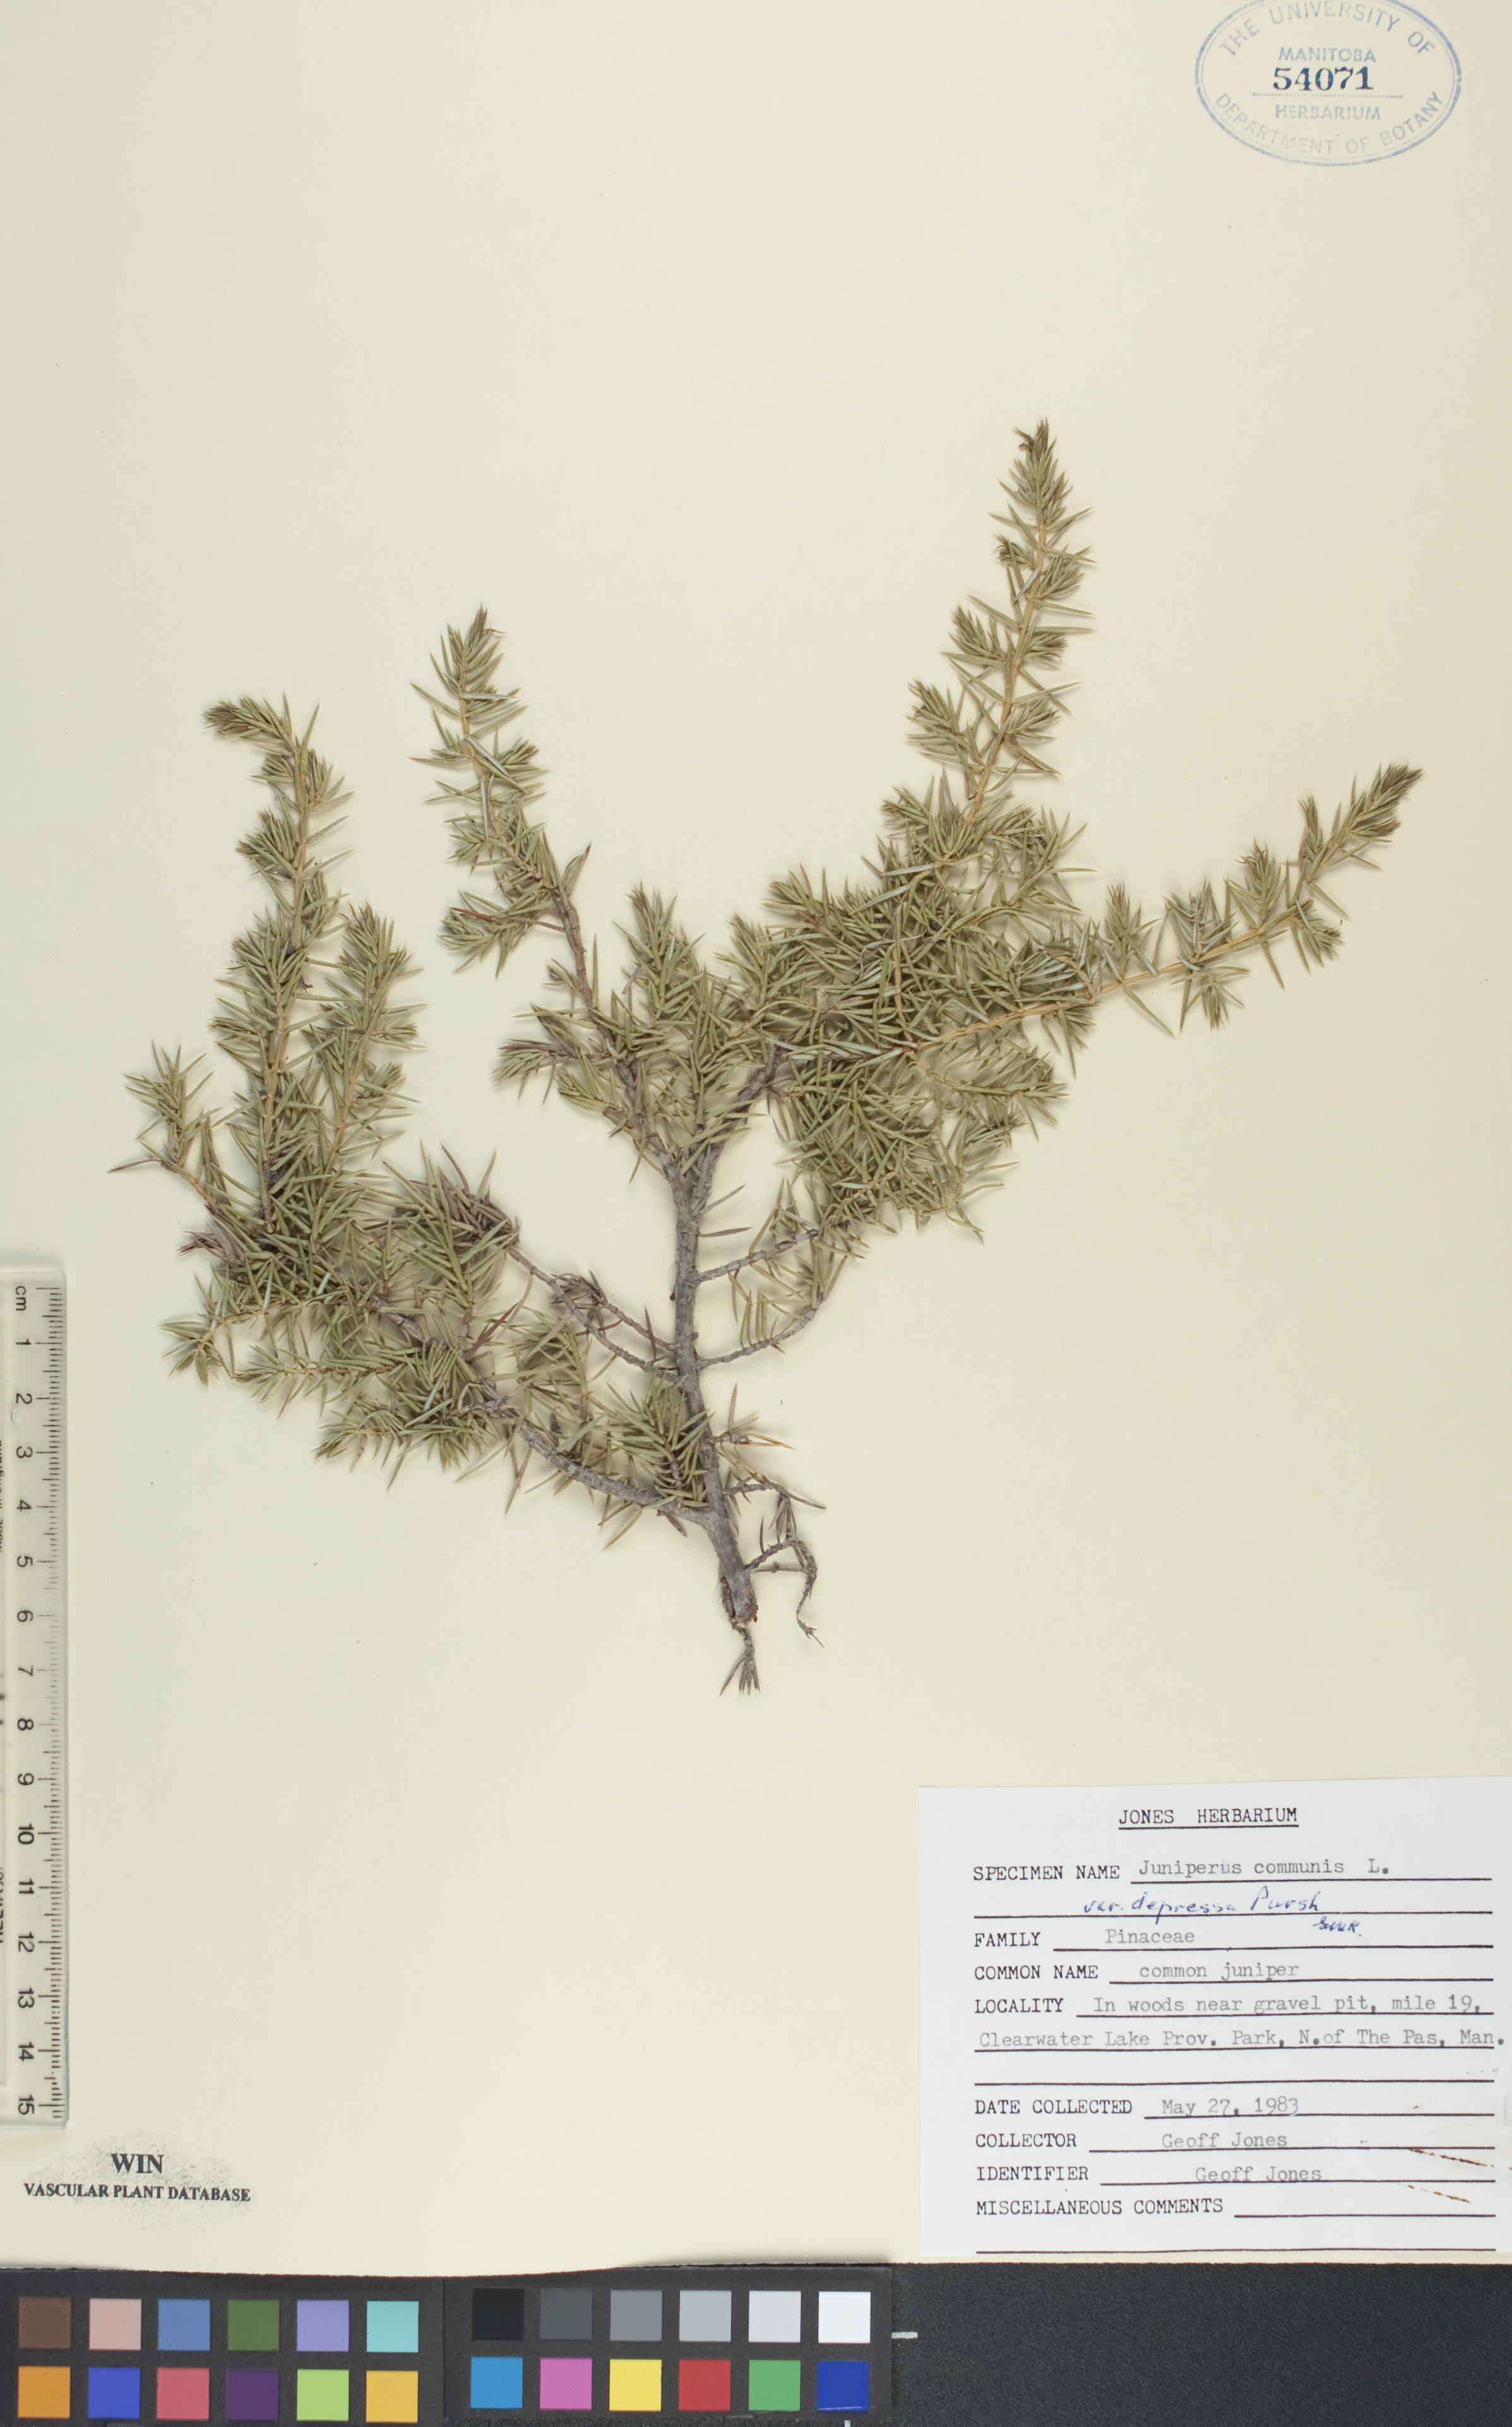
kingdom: Plantae
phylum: Tracheophyta
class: Pinopsida
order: Pinales
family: Cupressaceae
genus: Juniperus
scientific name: Juniperus communis
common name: Common juniper
